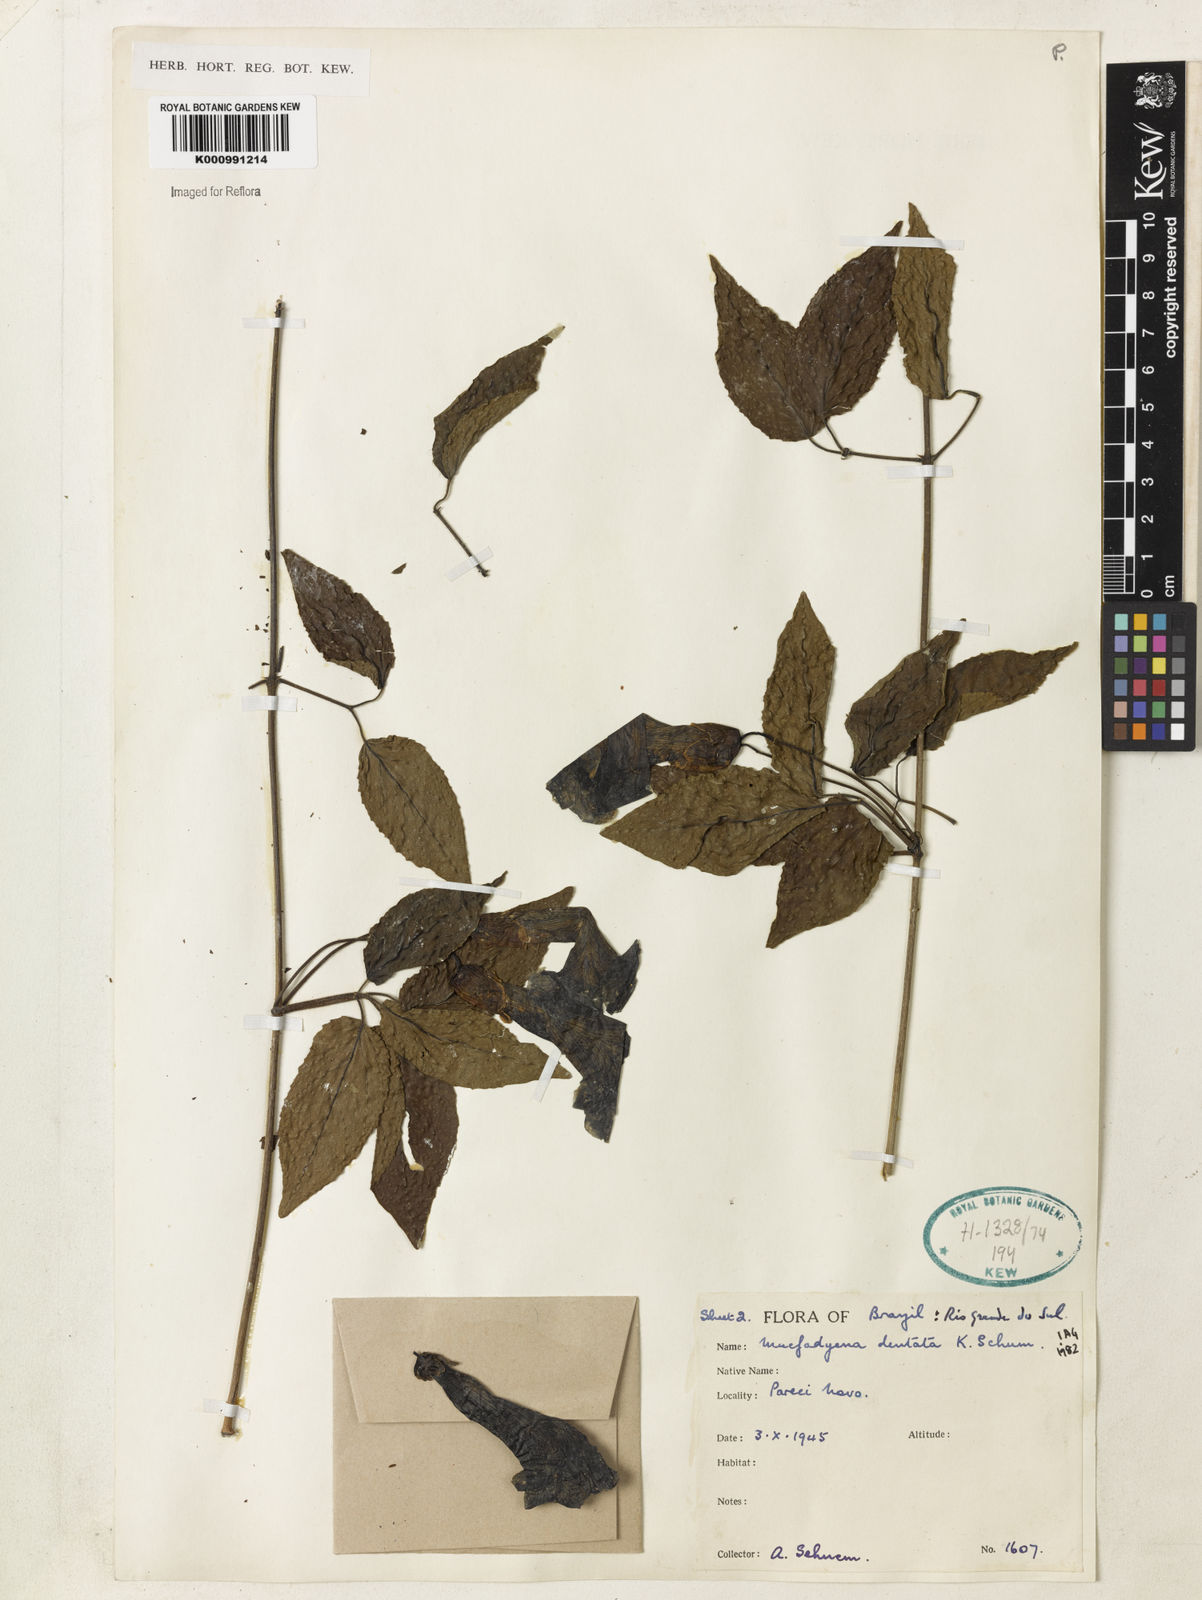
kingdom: Plantae
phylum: Tracheophyta
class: Magnoliopsida
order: Lamiales
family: Bignoniaceae
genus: Dolichandra
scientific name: Dolichandra dentata
